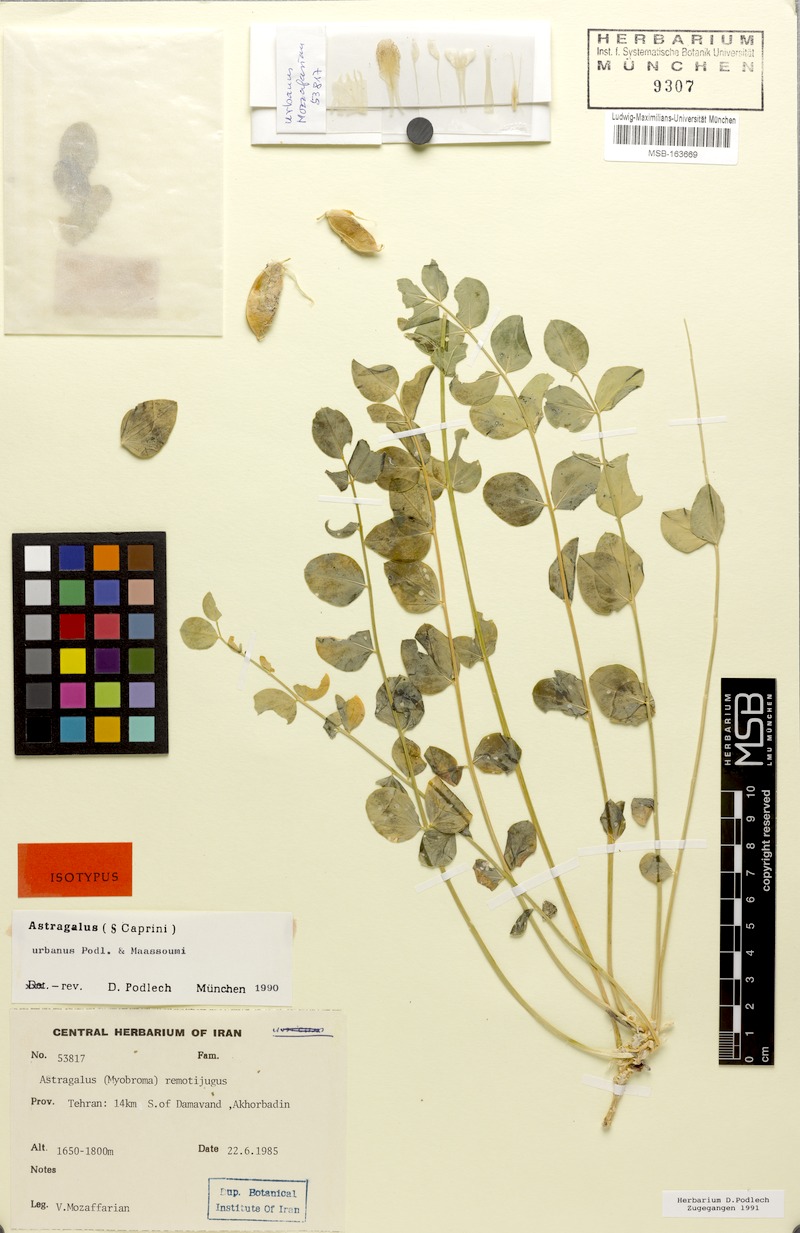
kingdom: Plantae
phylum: Tracheophyta
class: Magnoliopsida
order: Fabales
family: Fabaceae
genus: Astragalus
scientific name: Astragalus urbanus
